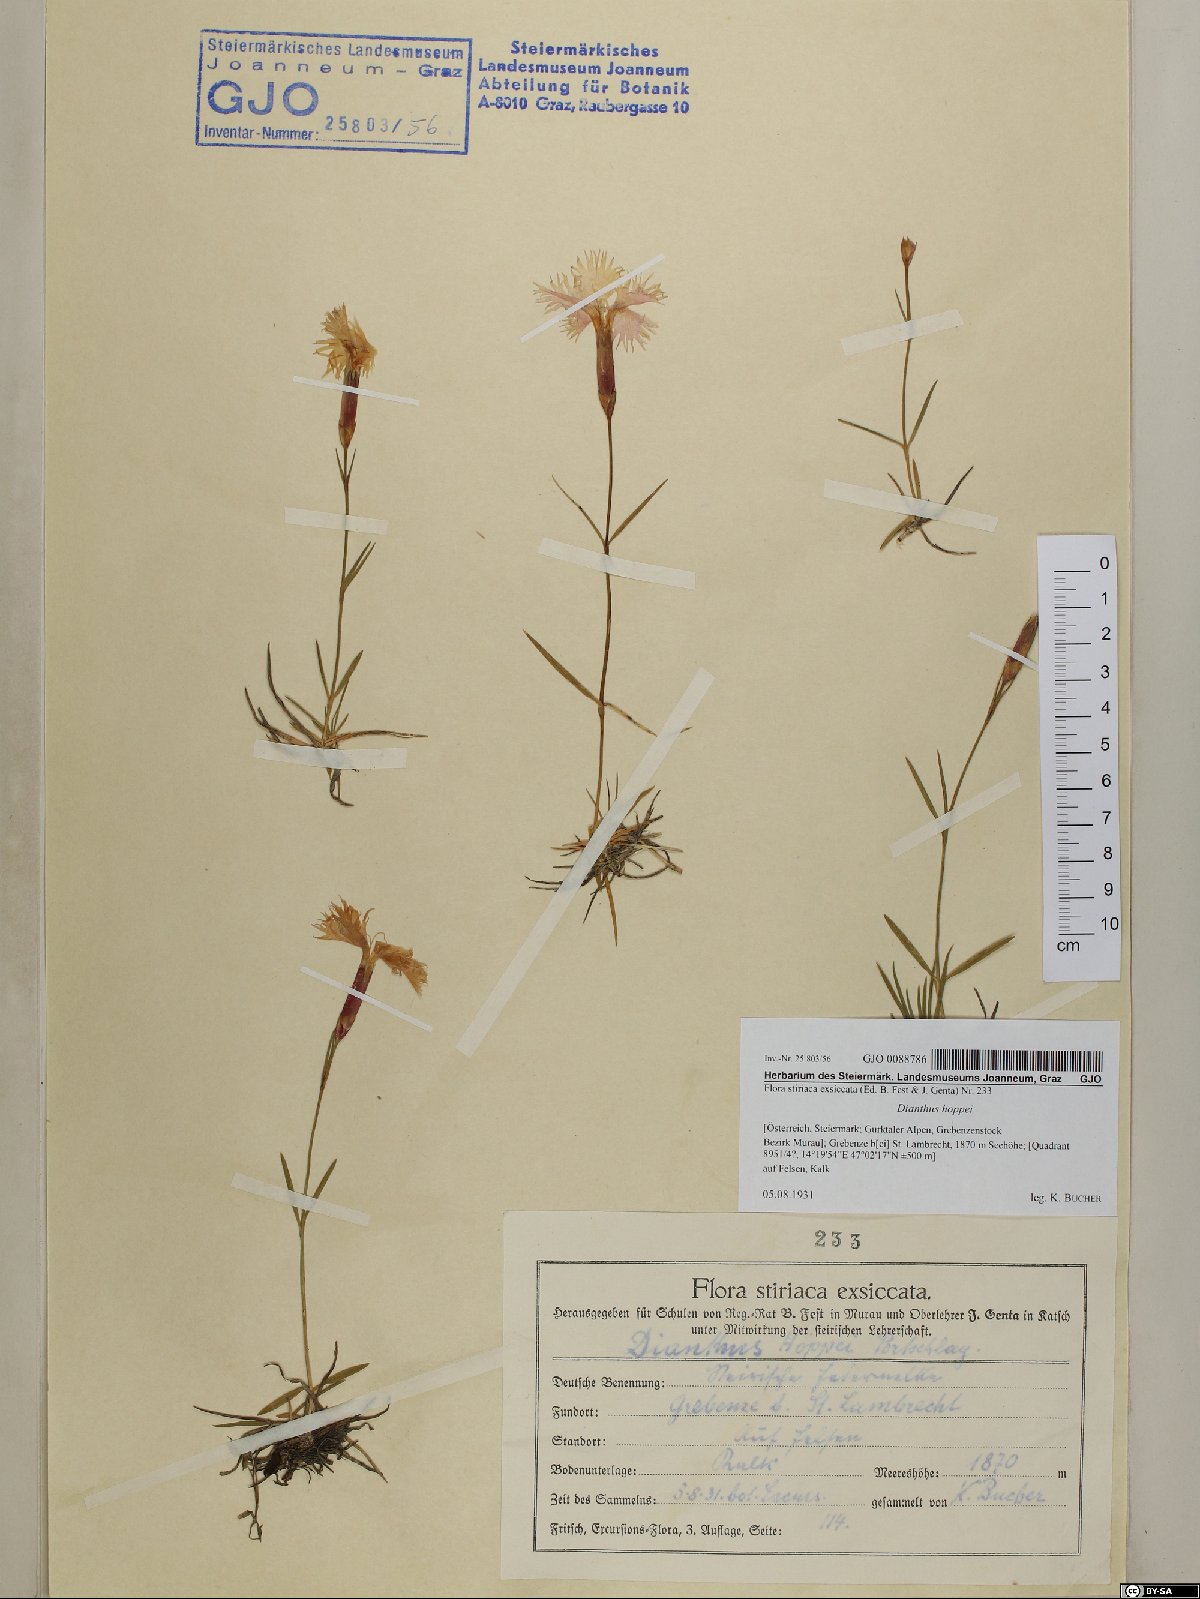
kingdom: Plantae
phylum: Tracheophyta
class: Magnoliopsida
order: Caryophyllales
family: Caryophyllaceae
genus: Dianthus
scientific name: Dianthus plumarius
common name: Pink
